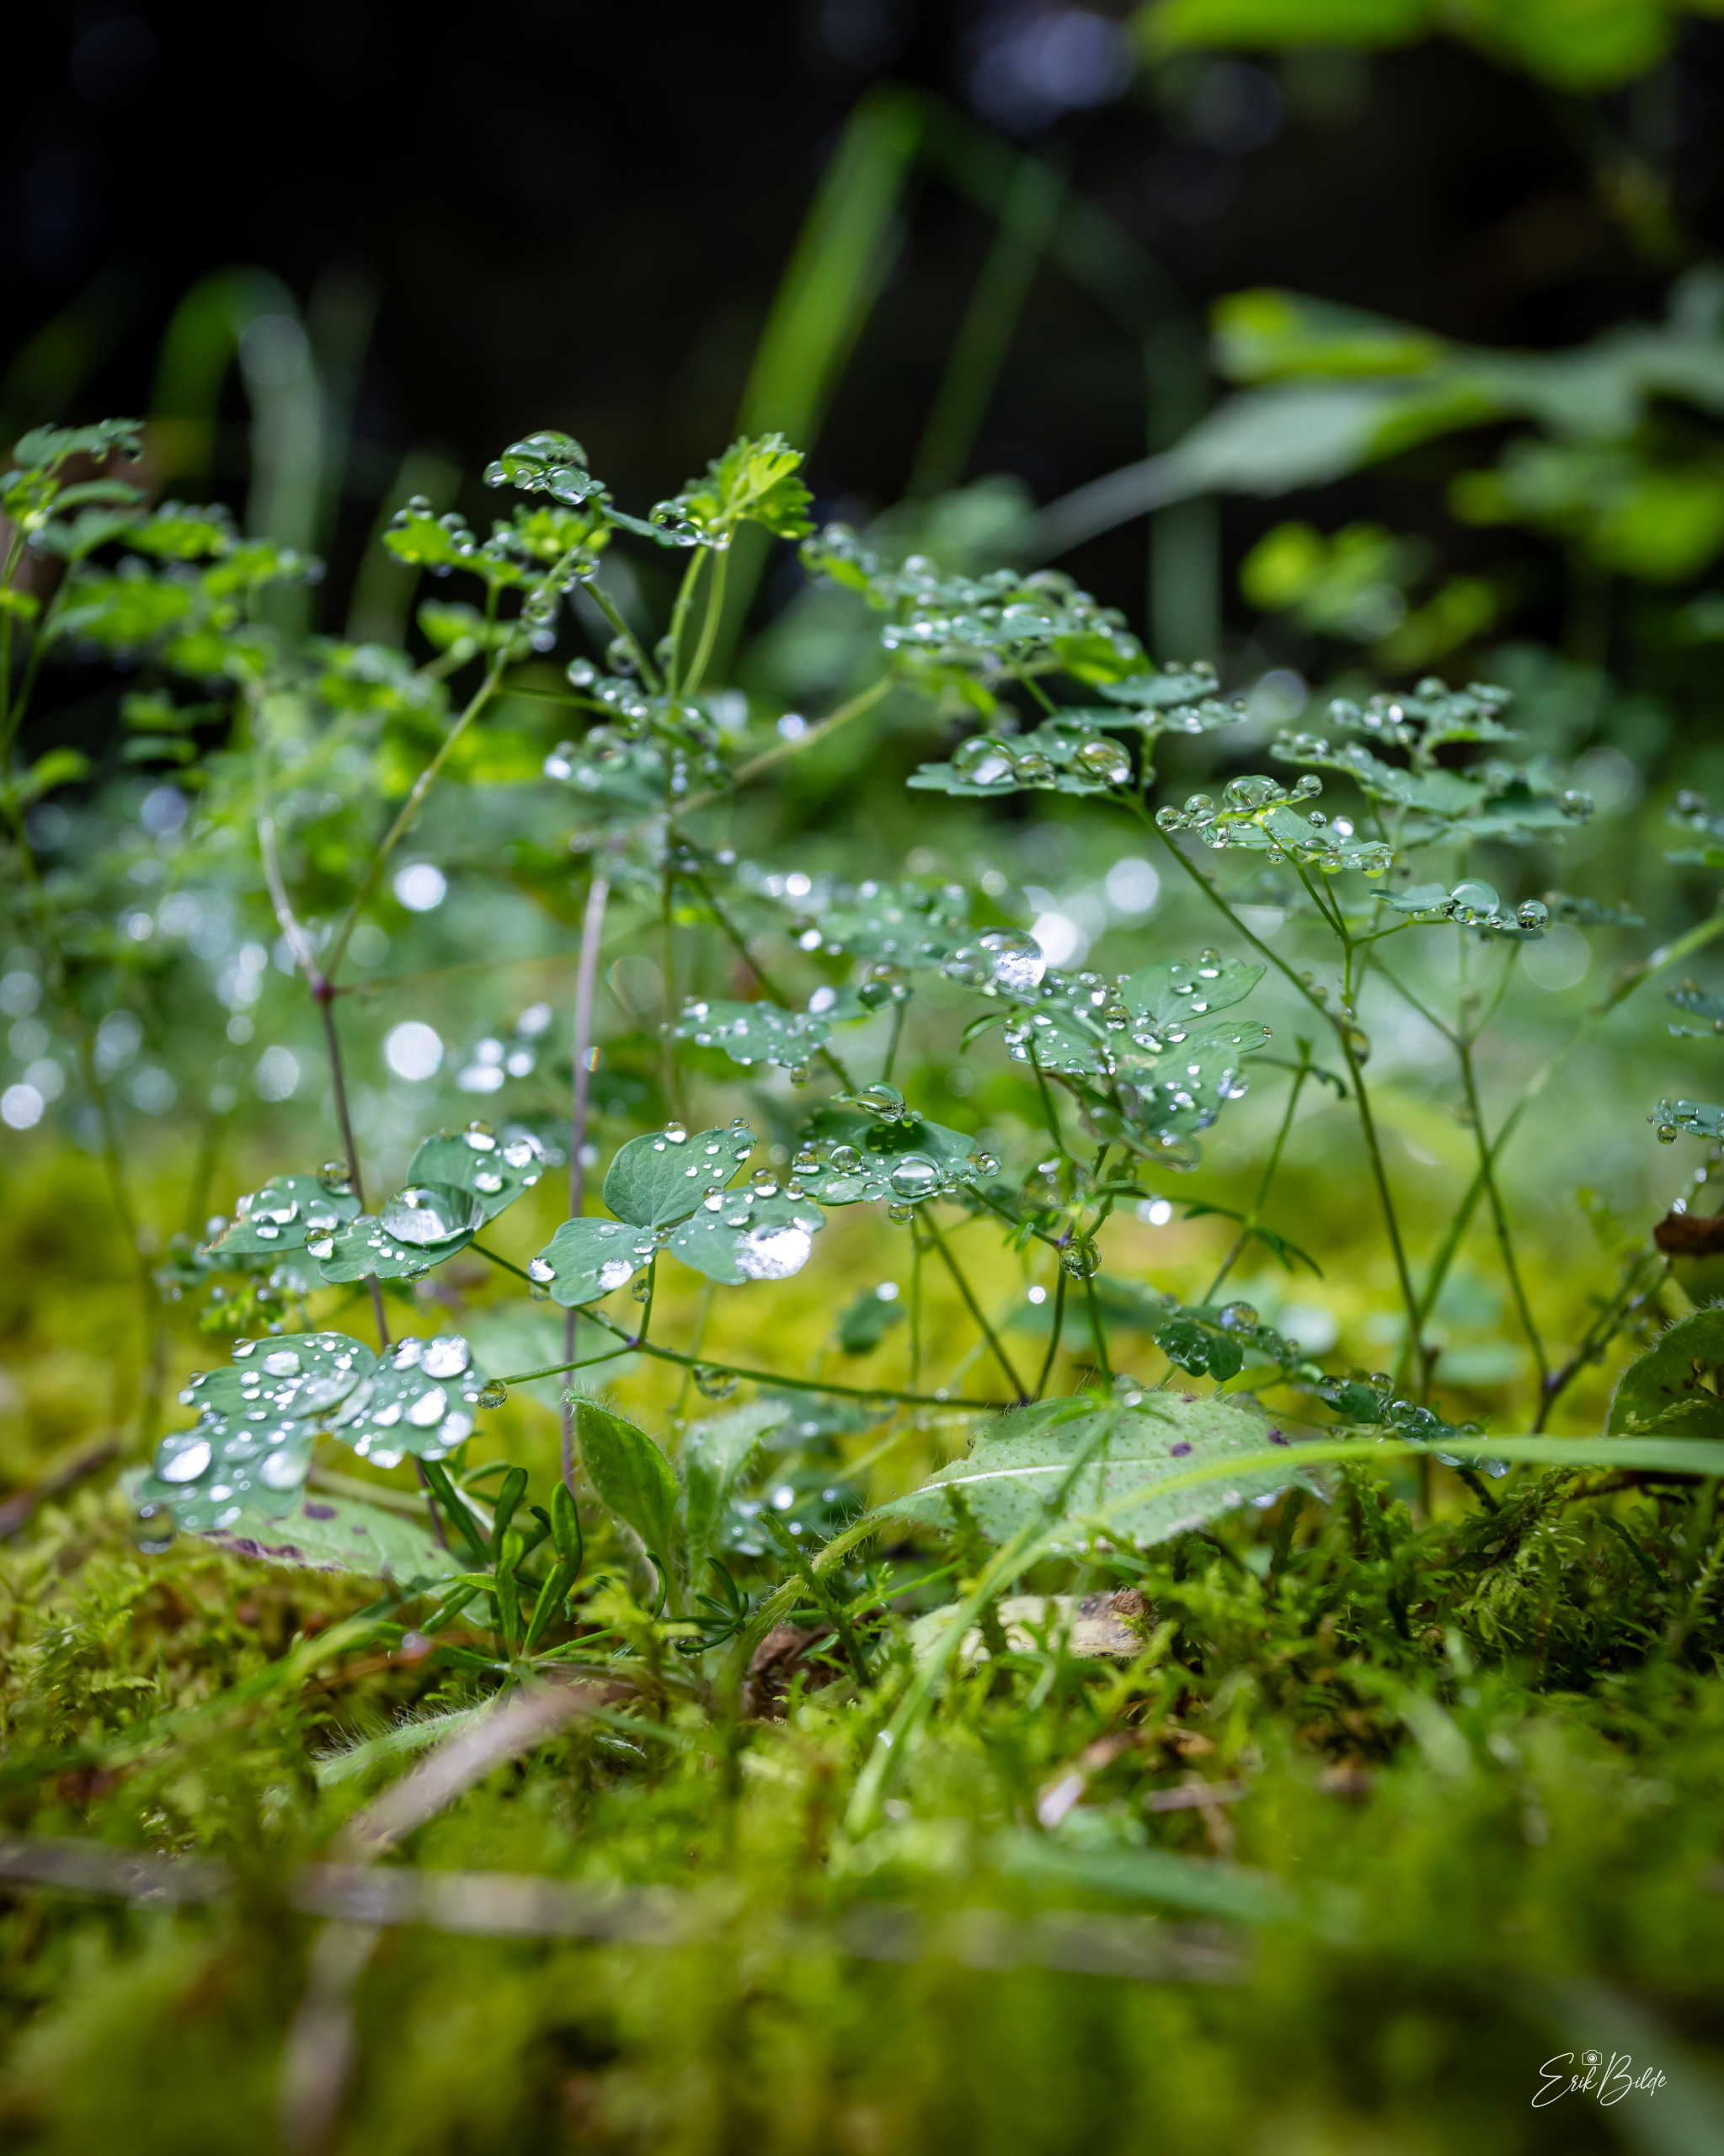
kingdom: Plantae
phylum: Tracheophyta
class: Magnoliopsida
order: Ranunculales
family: Ranunculaceae
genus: Aquilegia
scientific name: Aquilegia vulgaris
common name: Akeleje
